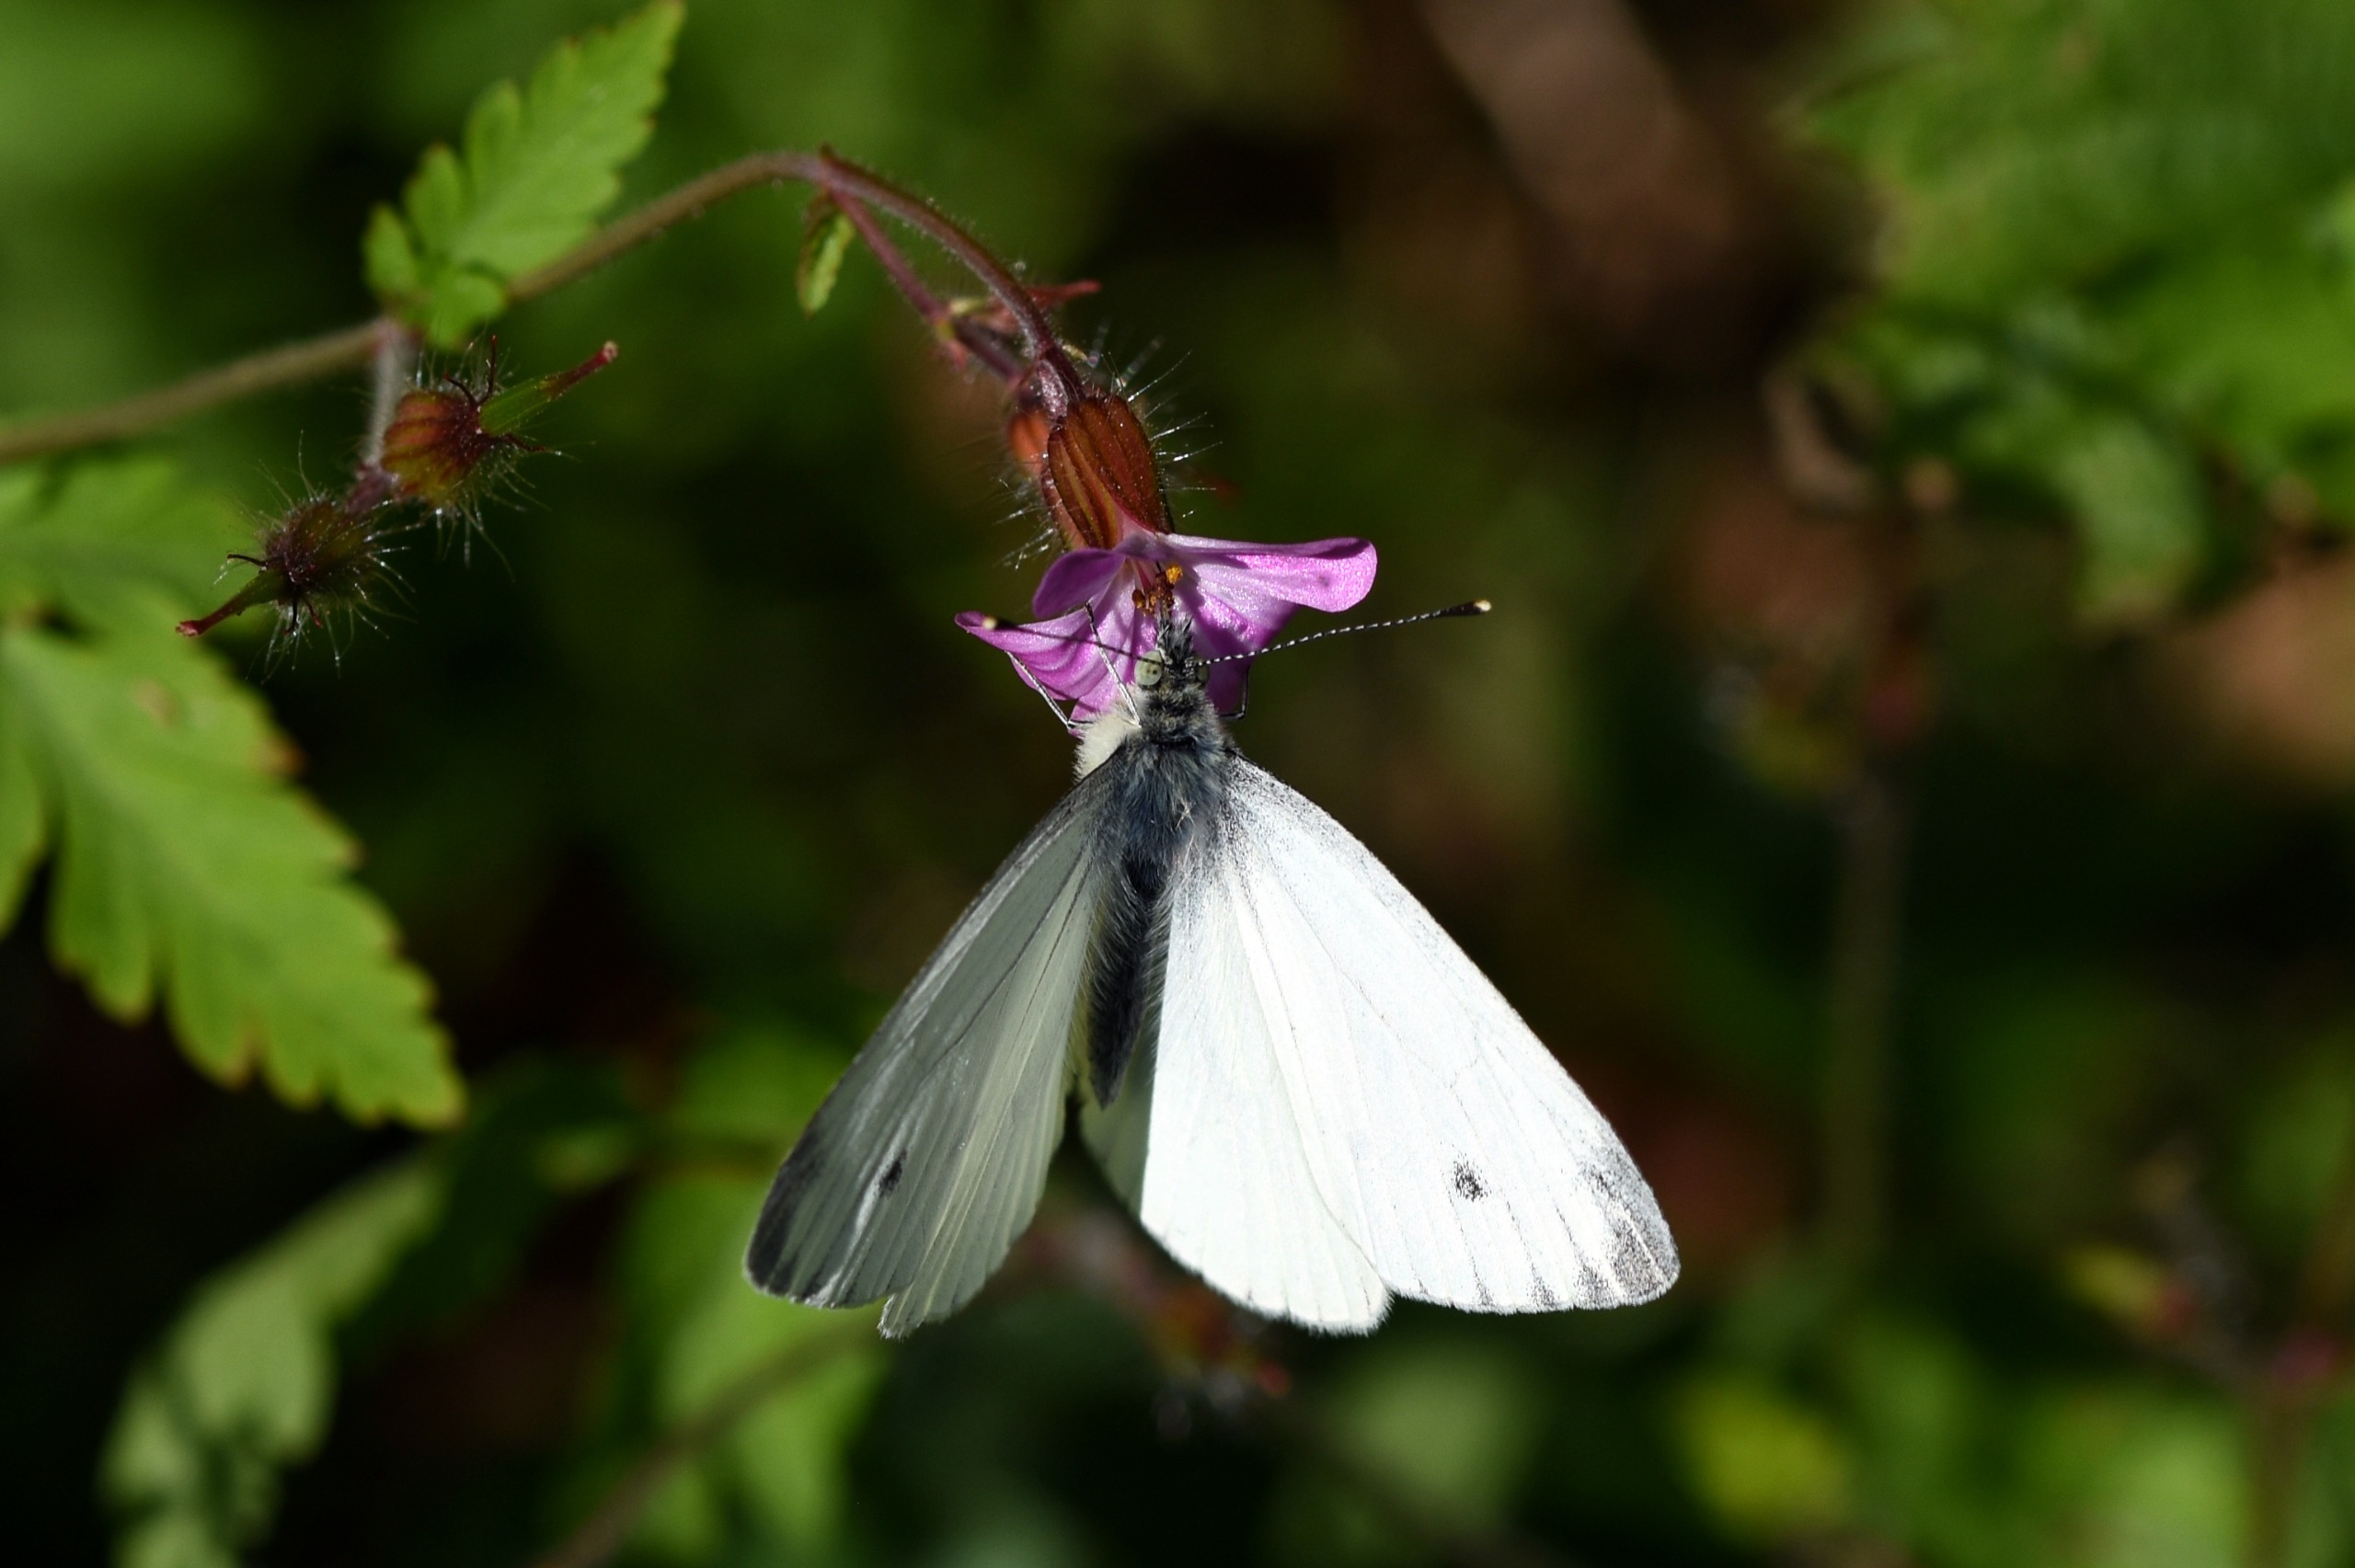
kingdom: Animalia
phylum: Arthropoda
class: Insecta
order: Lepidoptera
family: Pieridae
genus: Pieris
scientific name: Pieris napi
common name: Grønåret kålsommerfugl
